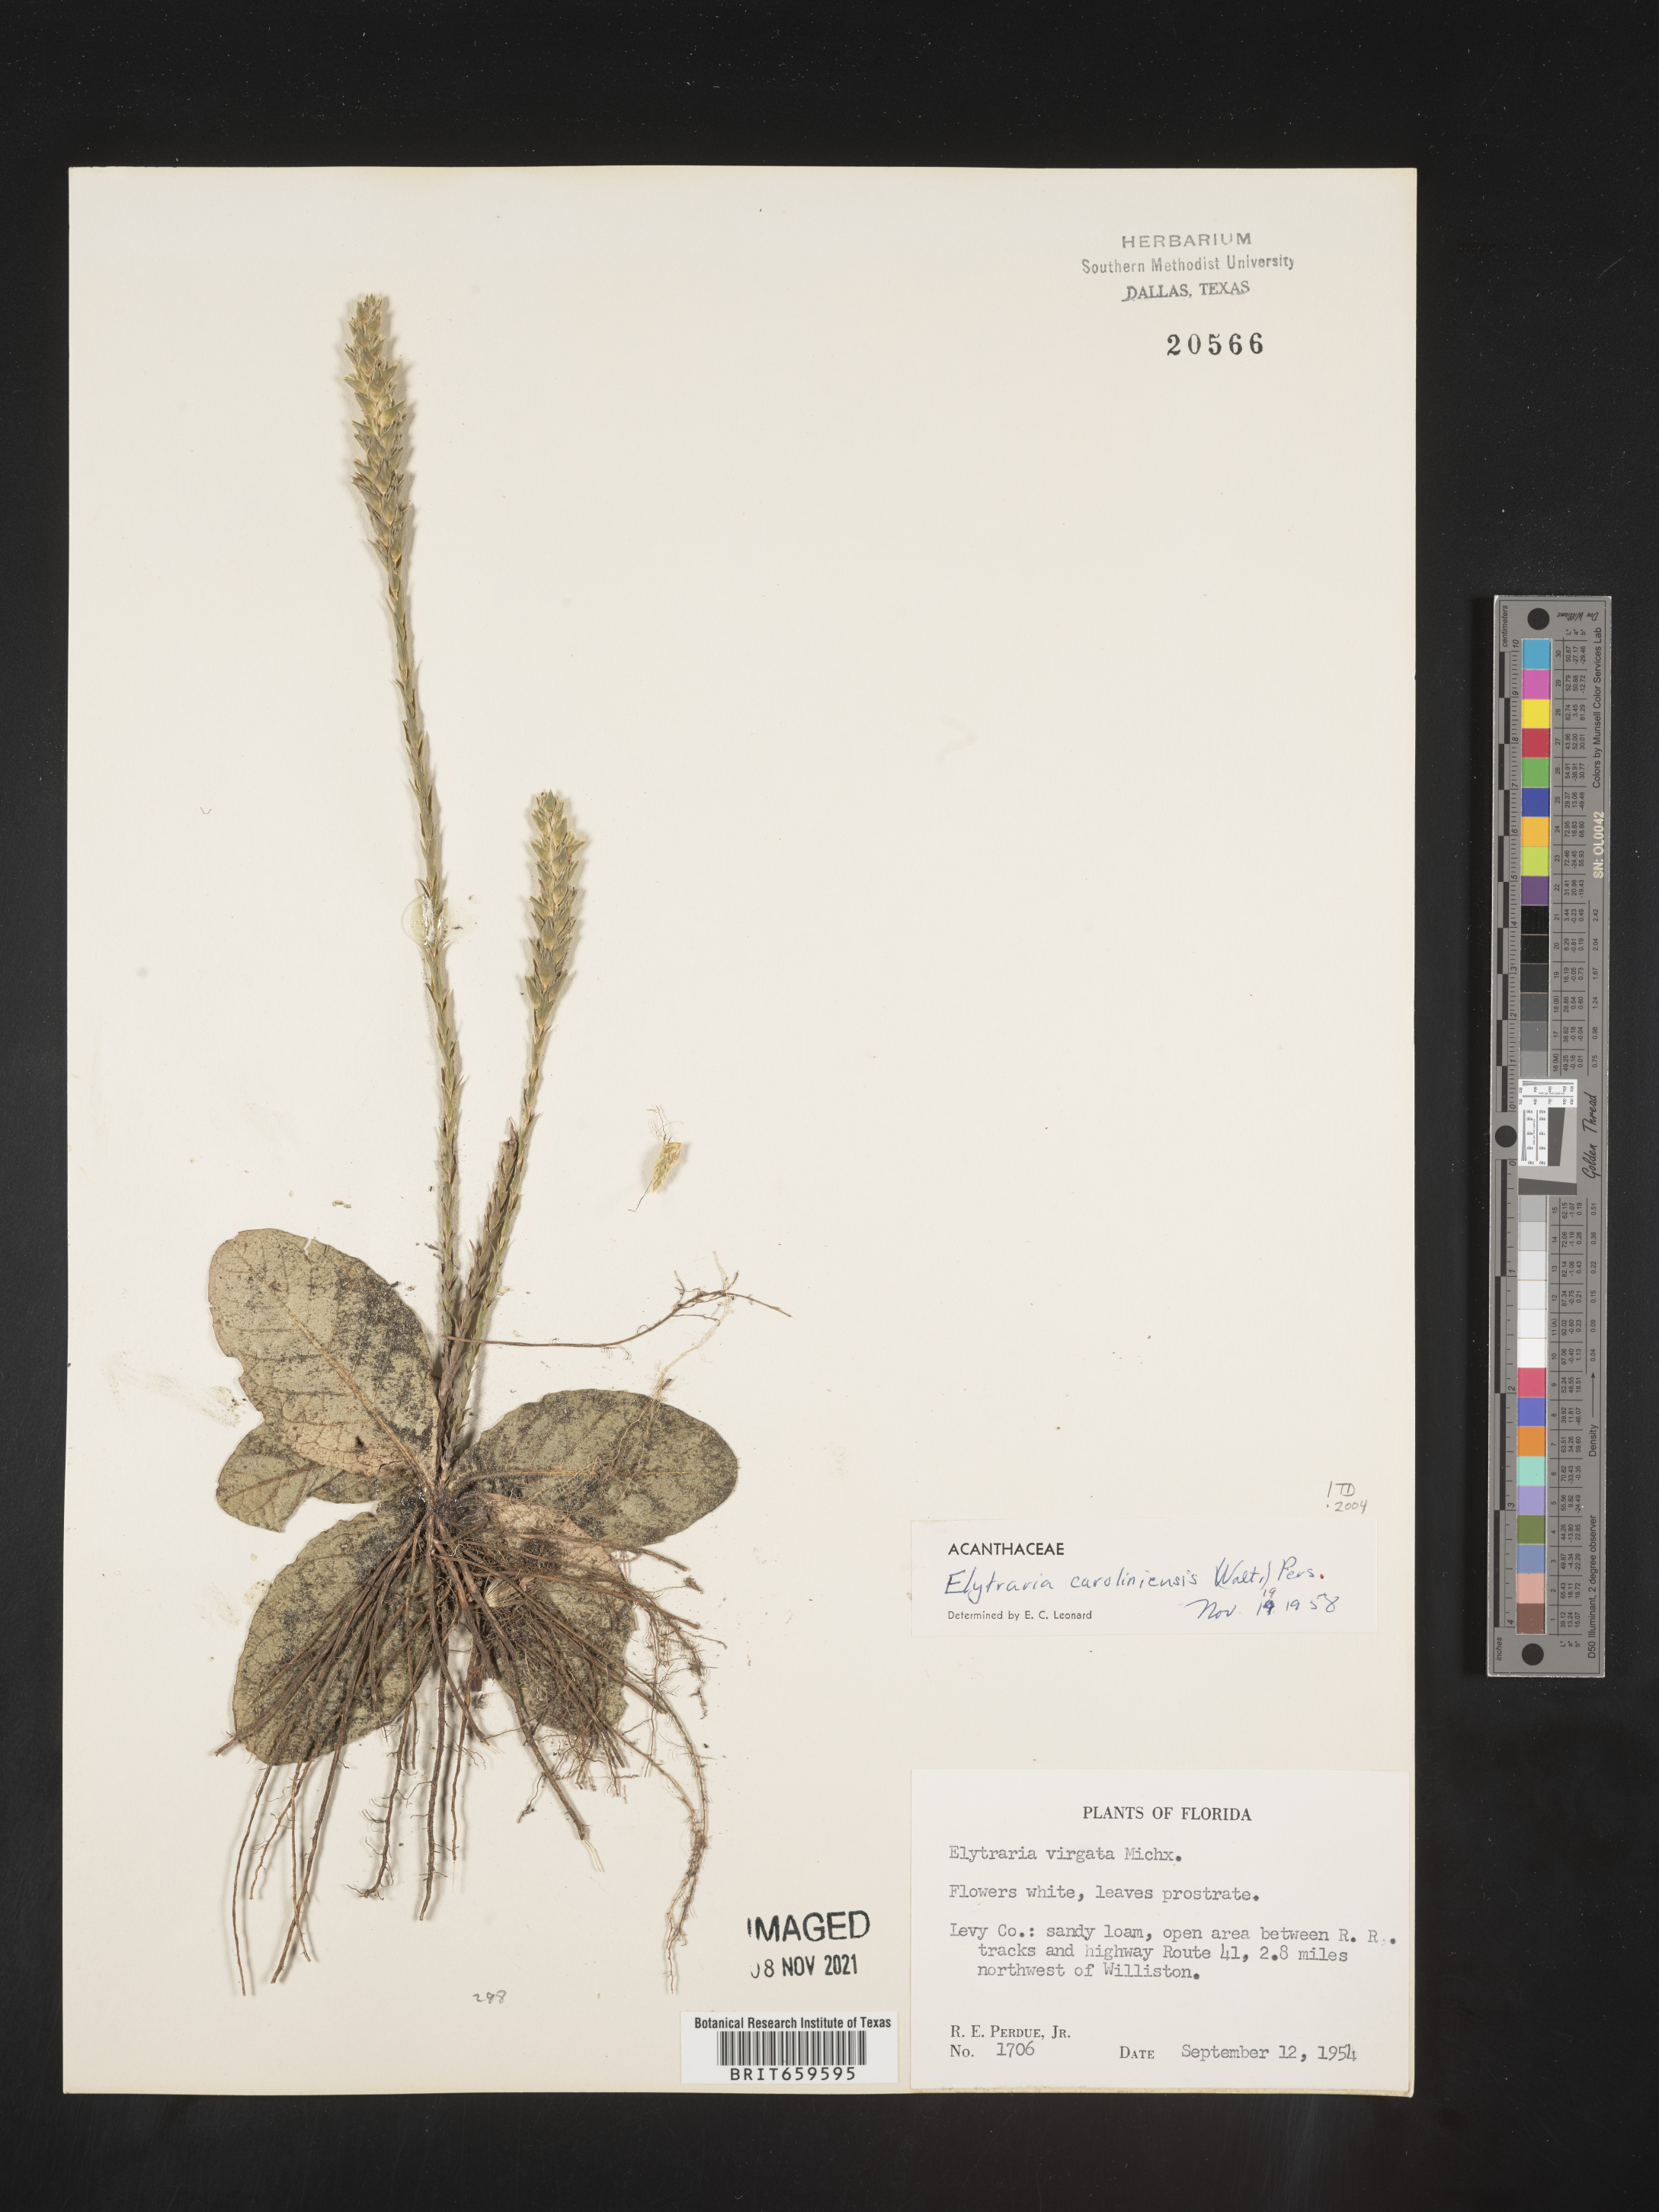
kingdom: Plantae
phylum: Tracheophyta
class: Magnoliopsida
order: Lamiales
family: Acanthaceae
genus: Elytraria
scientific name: Elytraria imbricata
